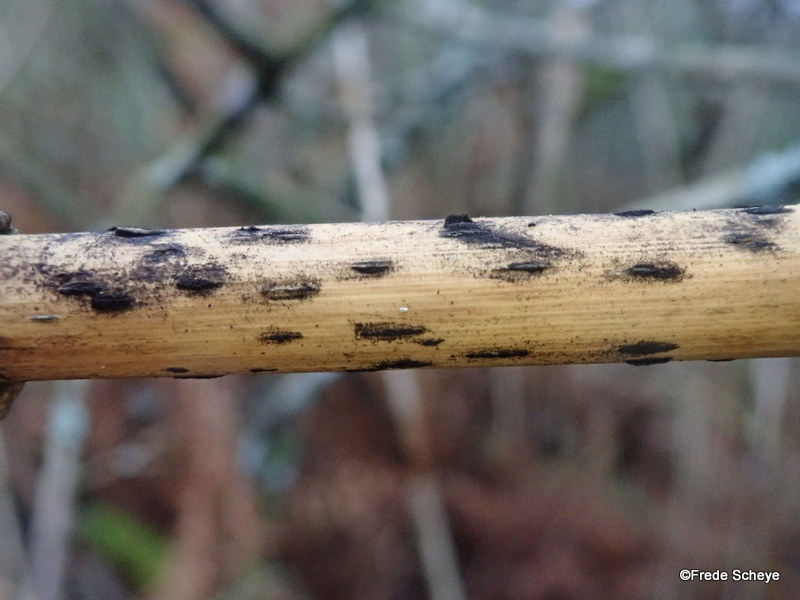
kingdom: Fungi
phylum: Ascomycota
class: Sordariomycetes
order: Xylariales
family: Apiosporaceae
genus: Apiospora
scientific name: Apiospora sphaerosperma
